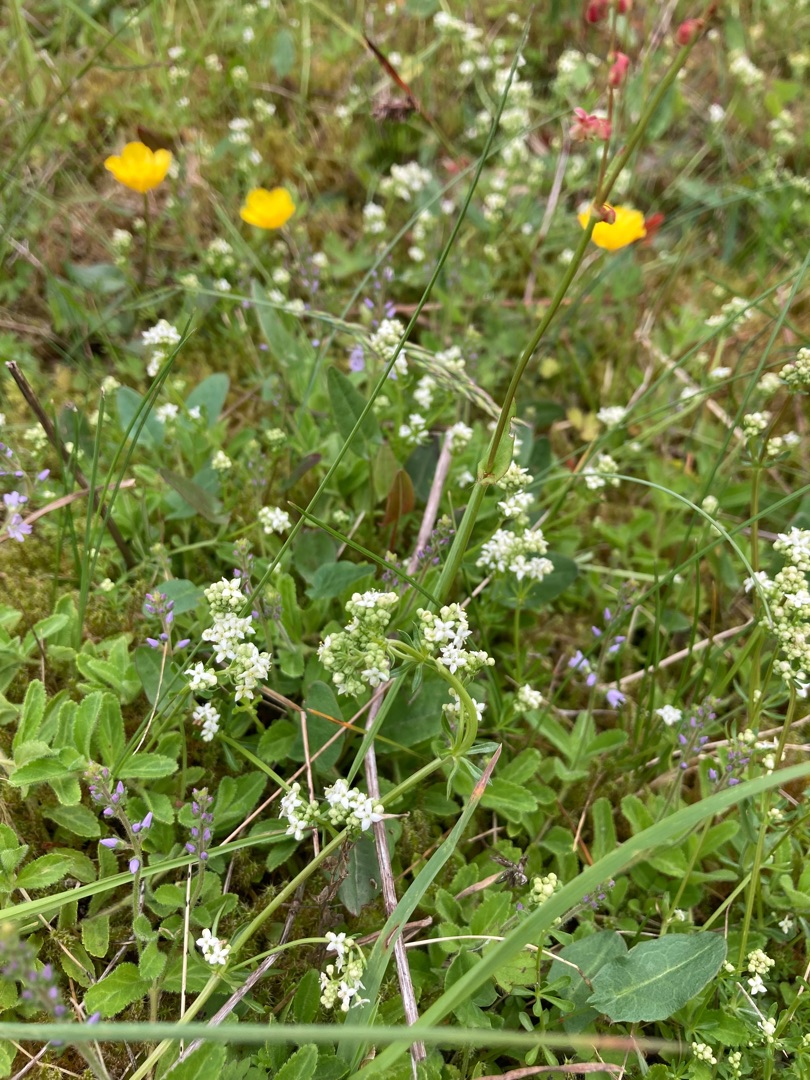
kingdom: Plantae
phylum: Tracheophyta
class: Magnoliopsida
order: Gentianales
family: Rubiaceae
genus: Galium
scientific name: Galium saxatile
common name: Lyng-snerre
